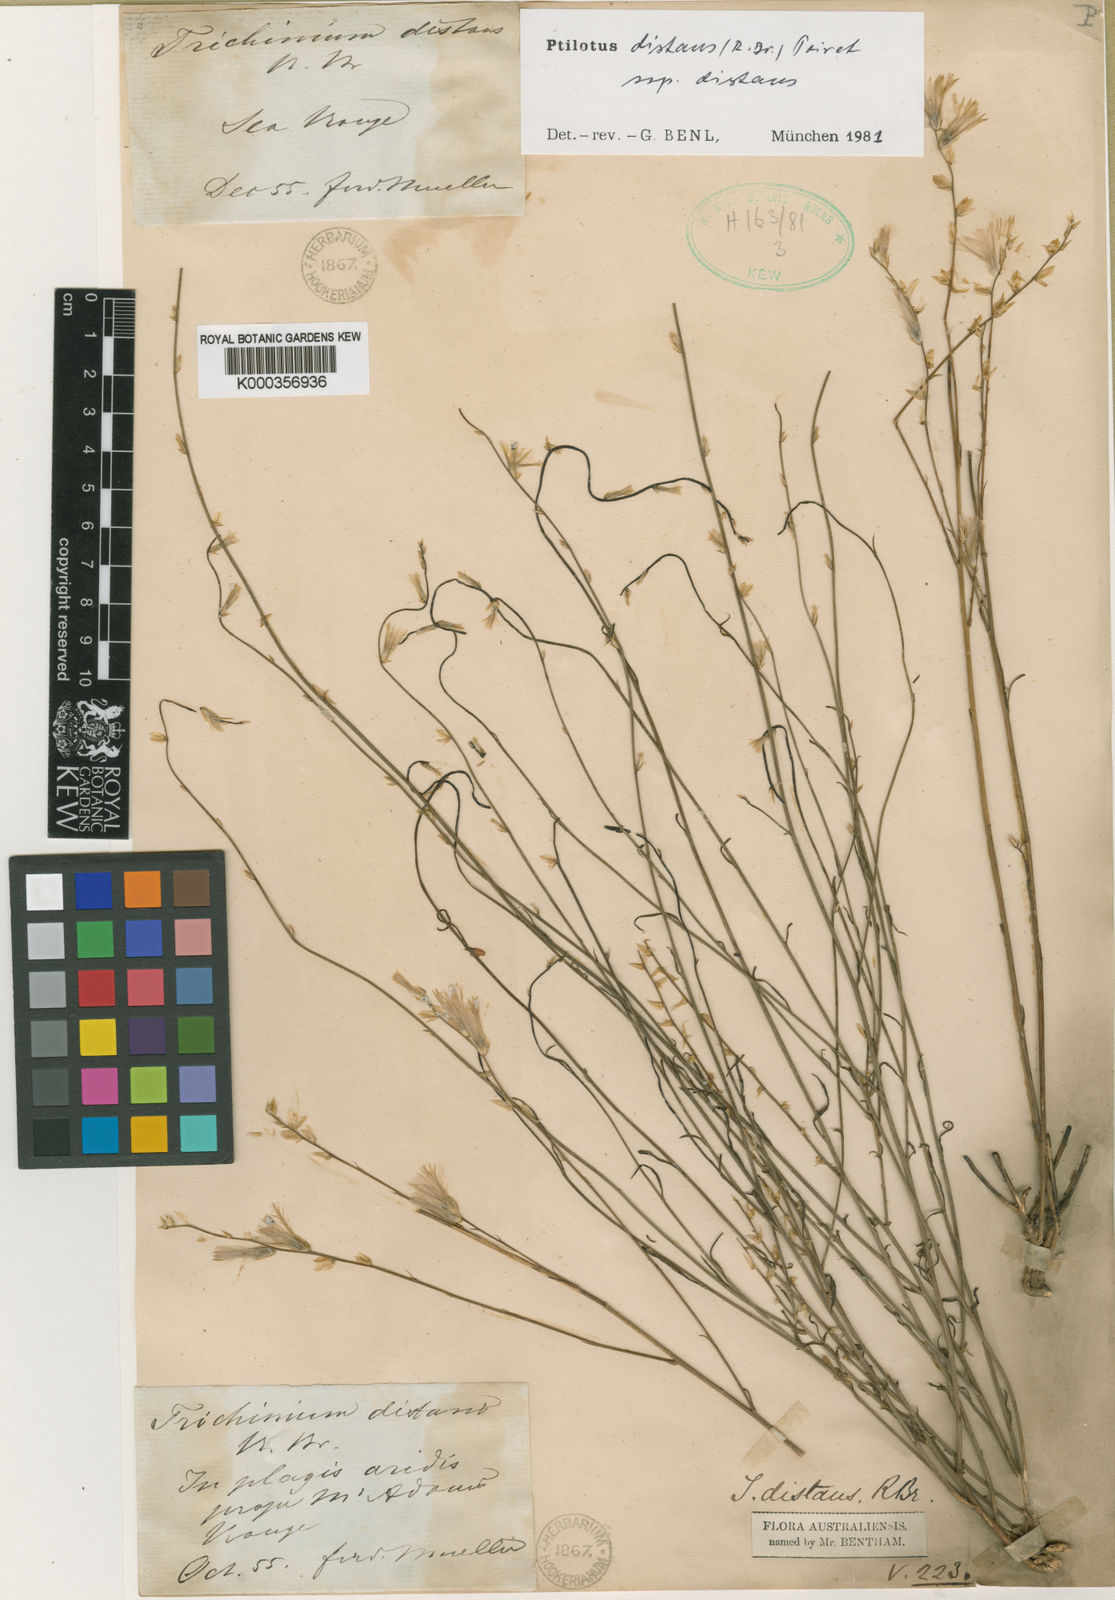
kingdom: Plantae
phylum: Tracheophyta
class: Magnoliopsida
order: Caryophyllales
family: Amaranthaceae
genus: Ptilotus
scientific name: Ptilotus
